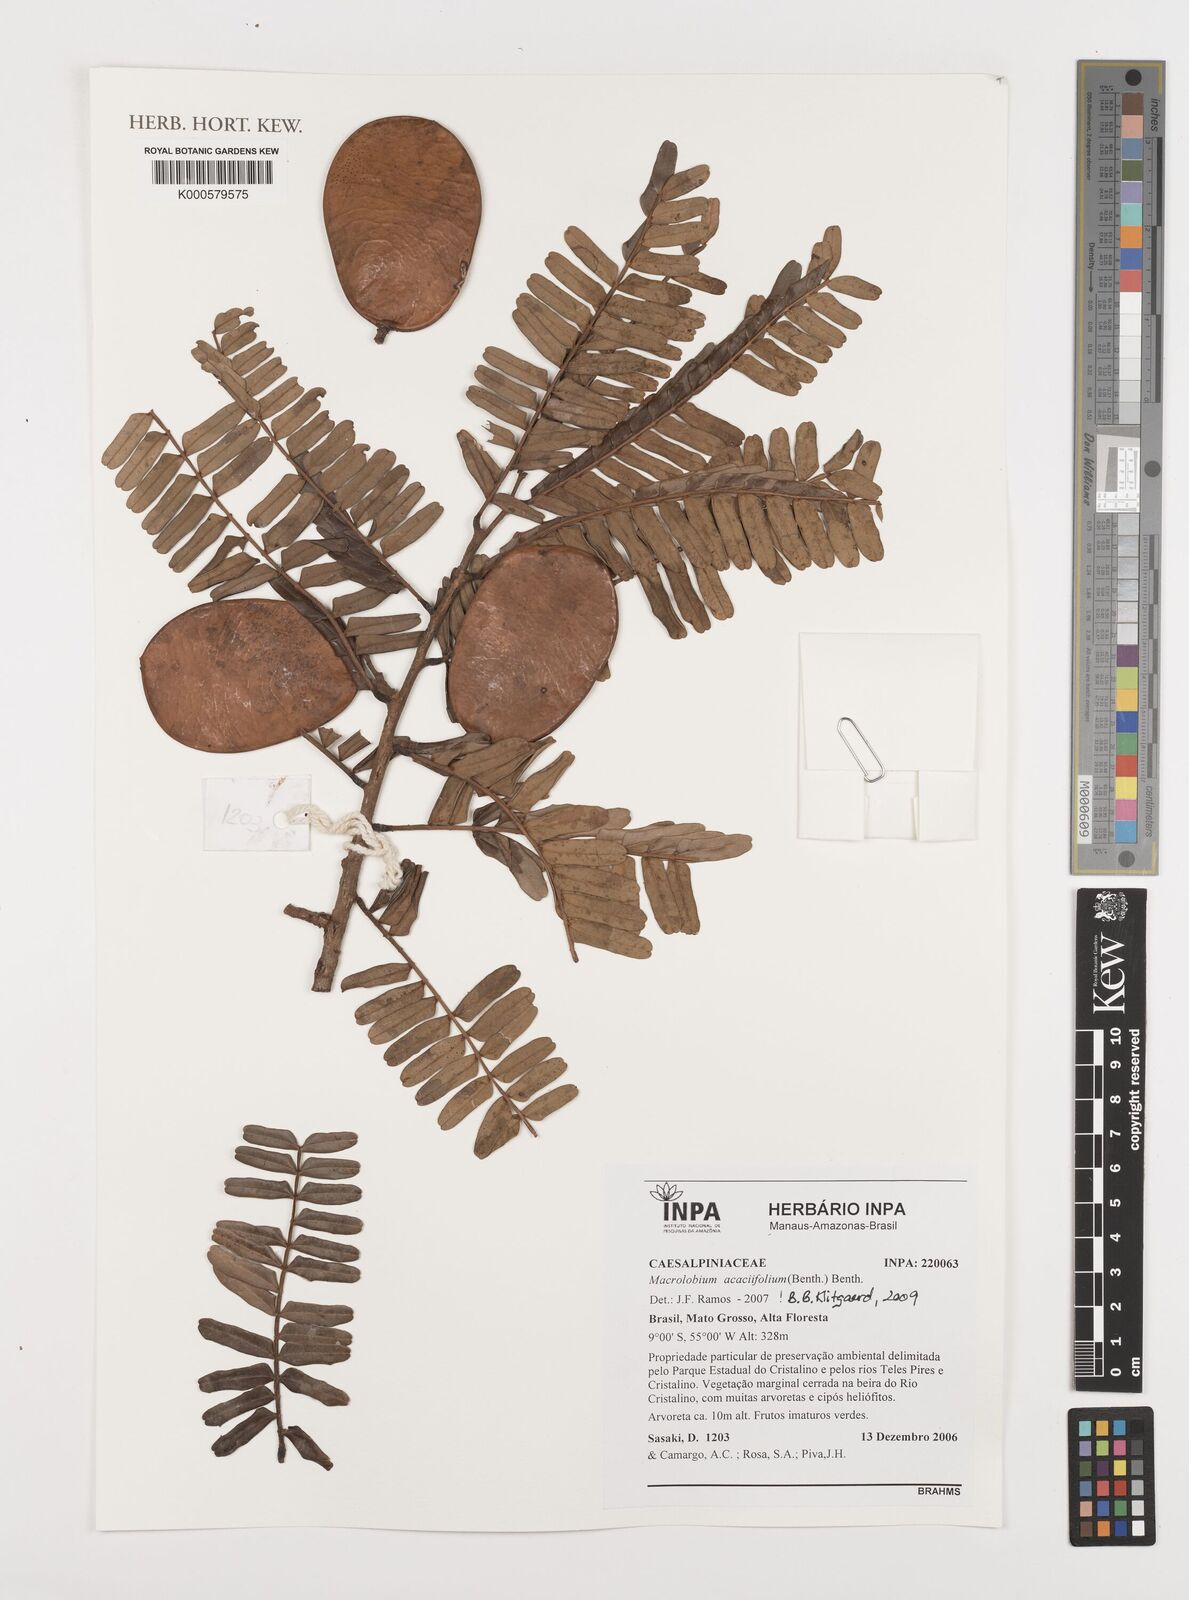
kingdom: Plantae
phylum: Tracheophyta
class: Magnoliopsida
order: Fabales
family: Fabaceae
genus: Macrolobium
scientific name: Macrolobium acaciifolium
